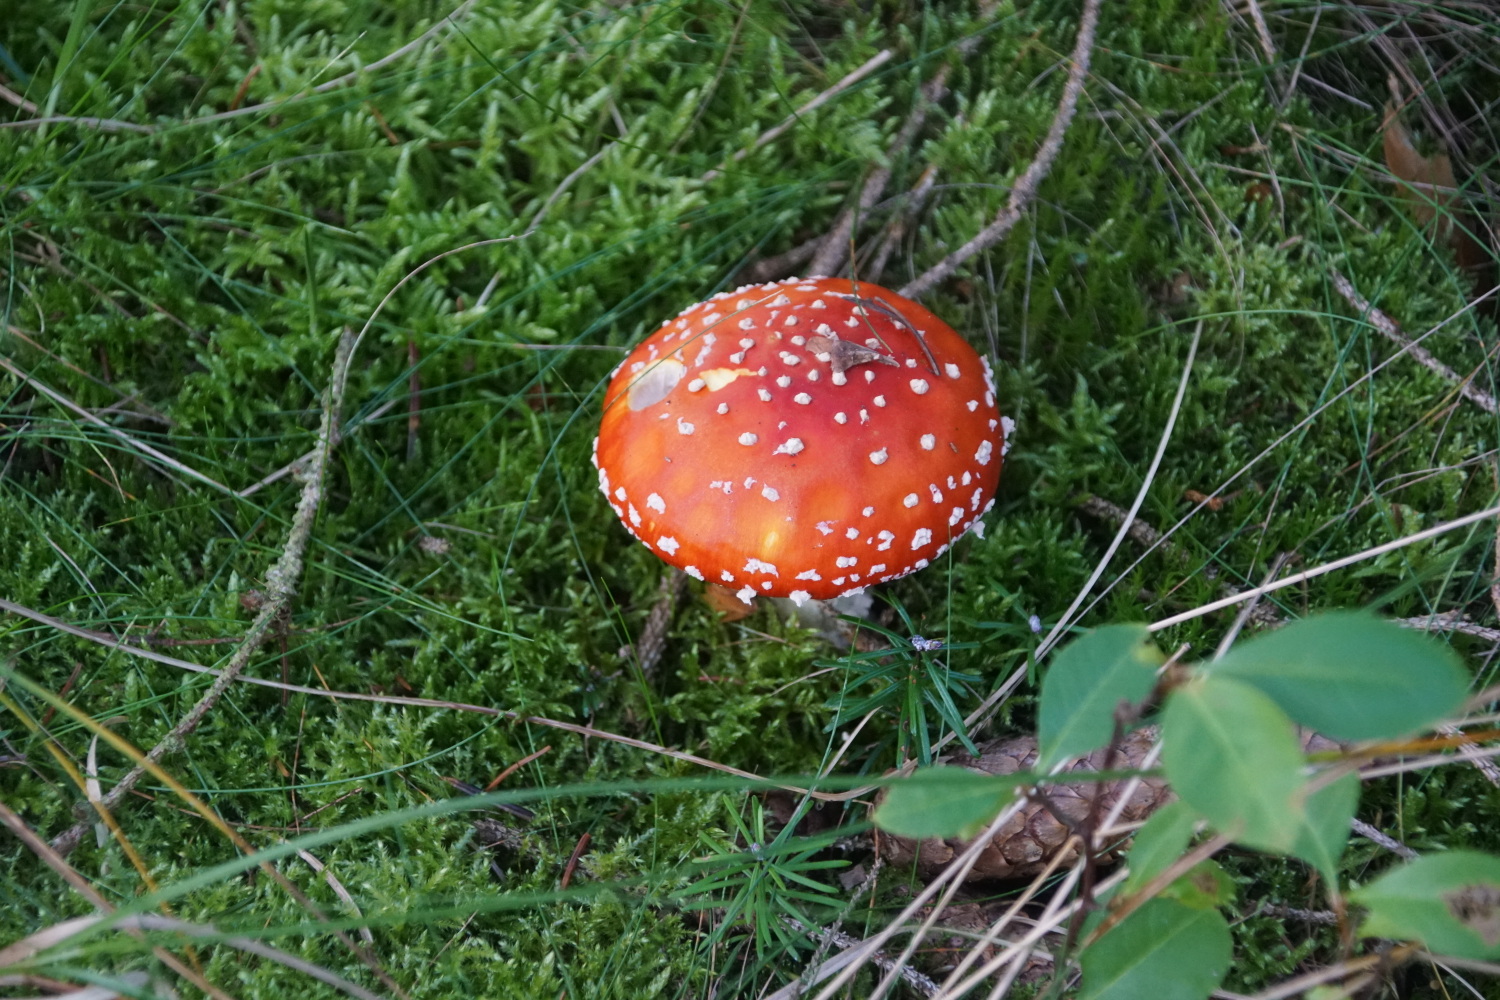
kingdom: Fungi
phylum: Basidiomycota
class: Agaricomycetes
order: Agaricales
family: Amanitaceae
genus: Amanita
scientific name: Amanita muscaria
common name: rød fluesvamp
